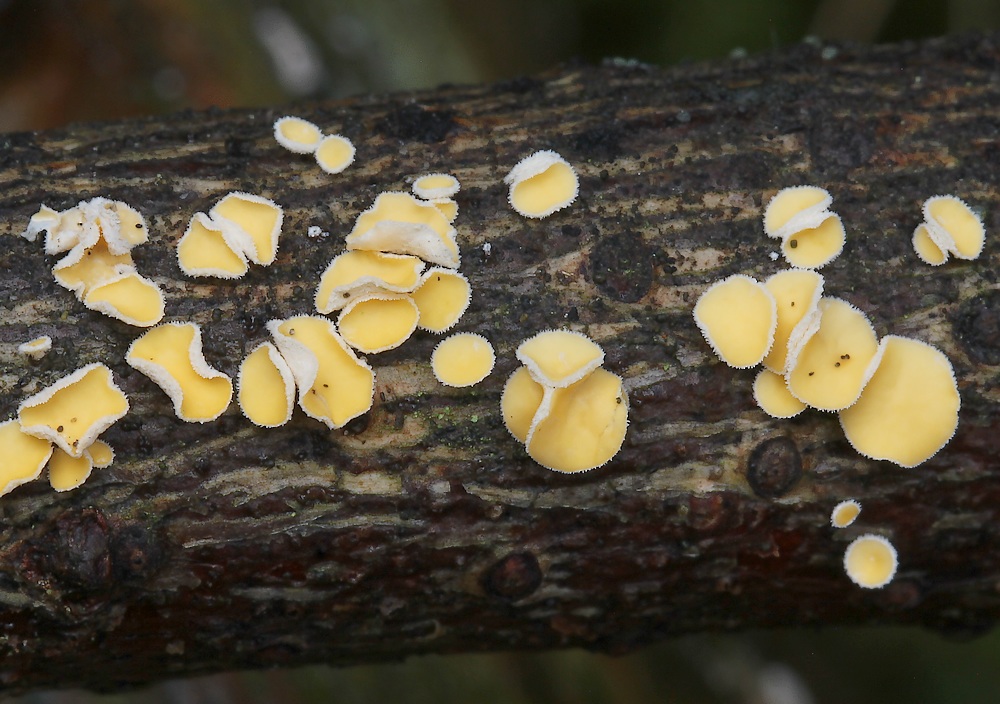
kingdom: Fungi
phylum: Ascomycota
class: Leotiomycetes
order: Helotiales
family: Lachnaceae
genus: Perrotia
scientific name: Perrotia gallica
